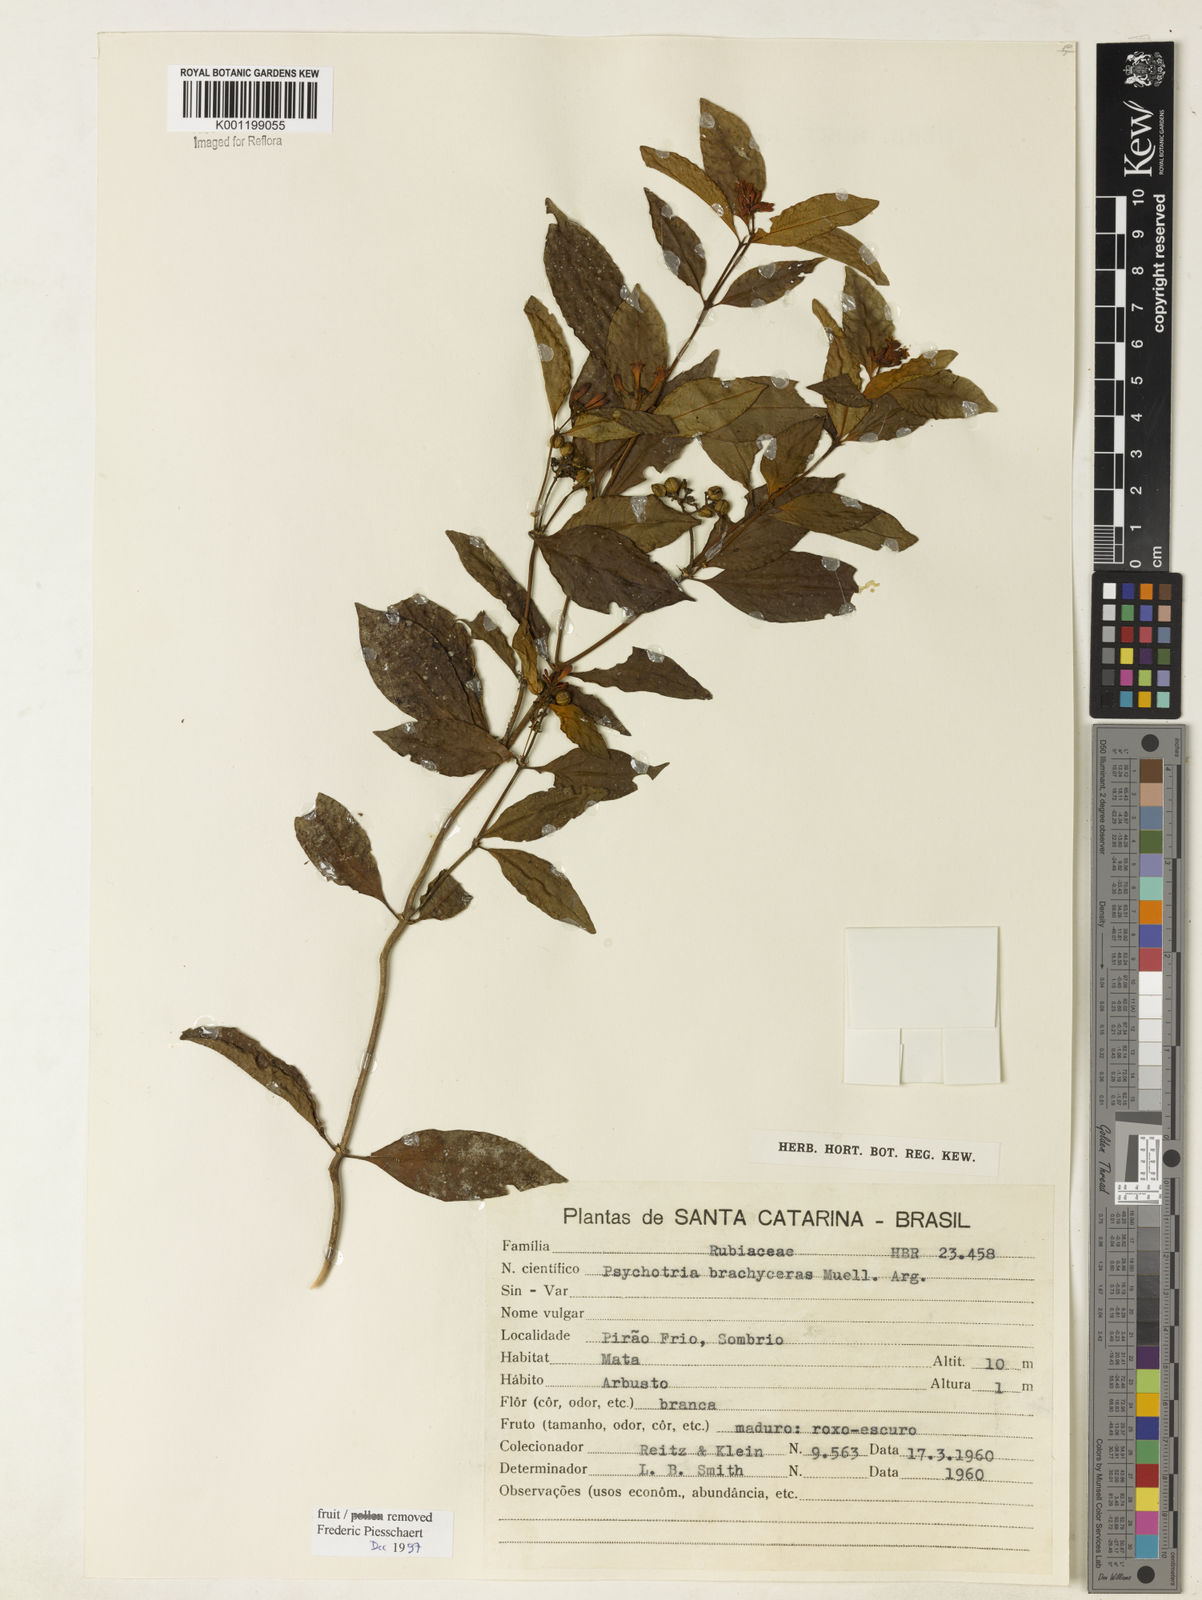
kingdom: Plantae
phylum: Tracheophyta
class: Magnoliopsida
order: Gentianales
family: Rubiaceae
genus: Psychotria
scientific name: Psychotria
